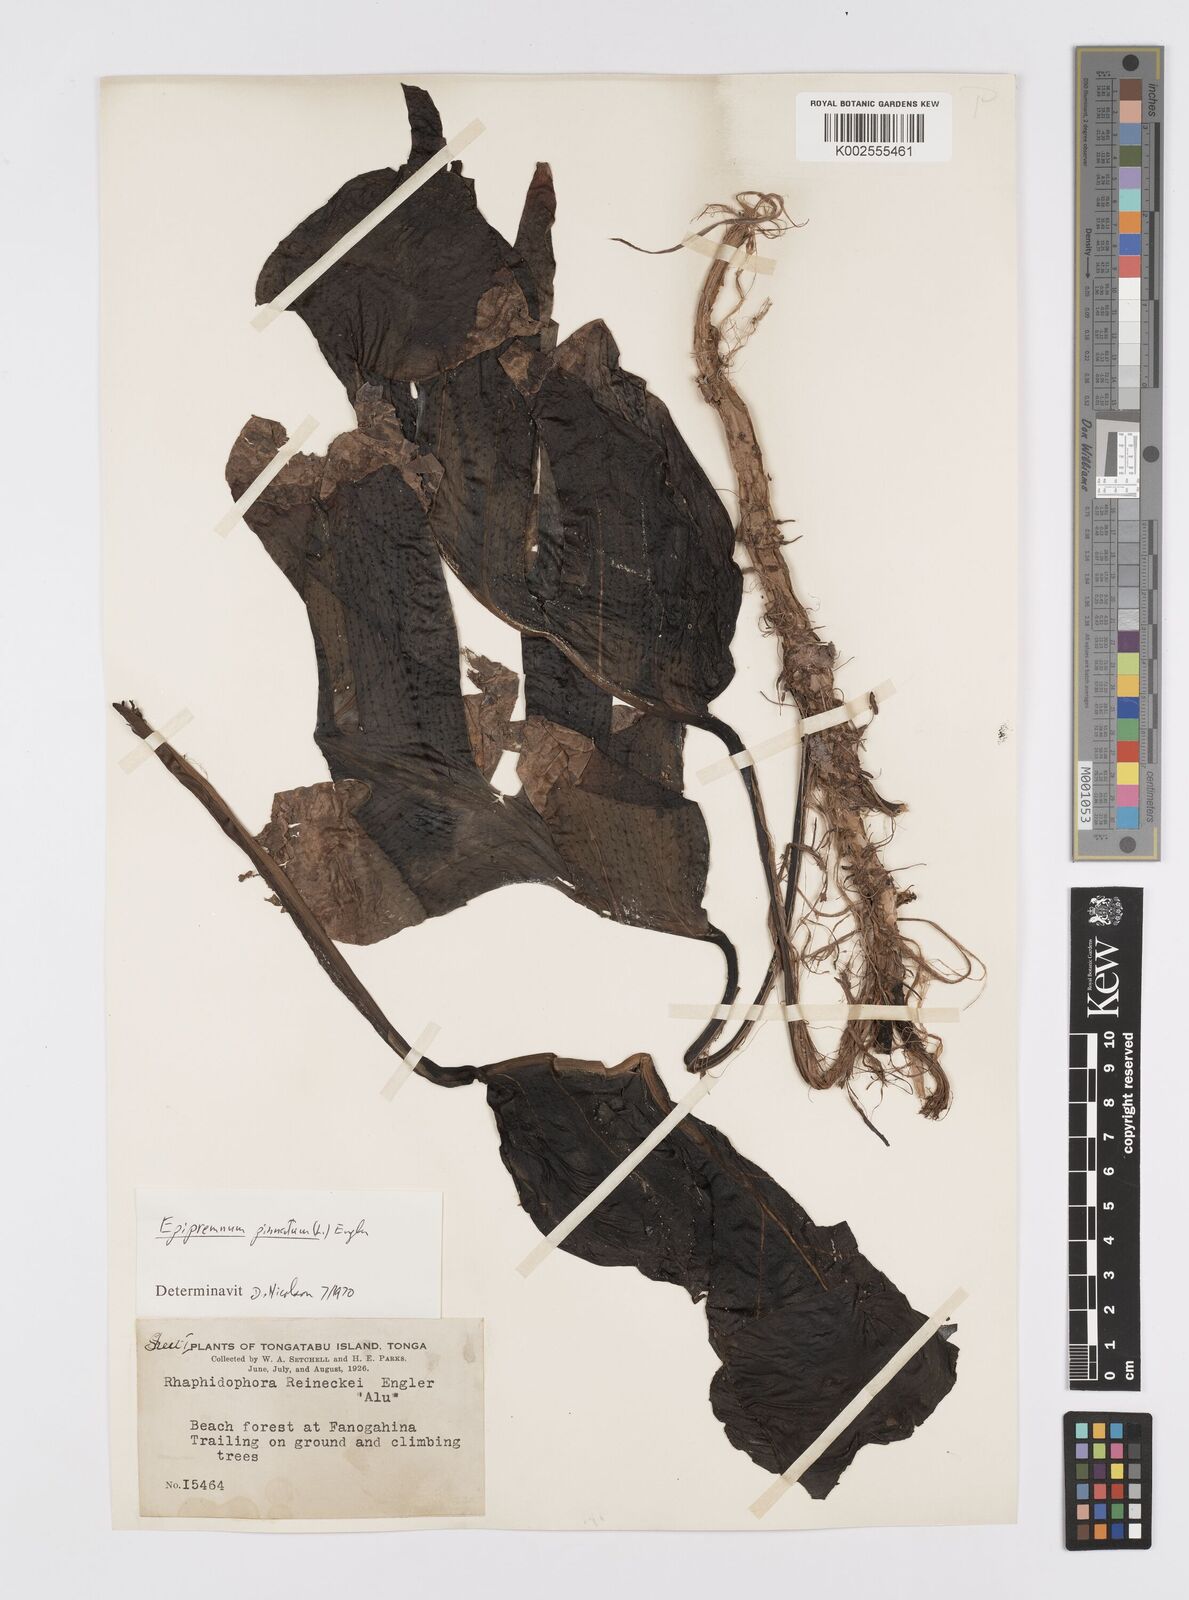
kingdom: Plantae
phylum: Tracheophyta
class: Liliopsida
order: Alismatales
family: Araceae
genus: Epipremnum
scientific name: Epipremnum pinnatum
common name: Centipede tongavine
